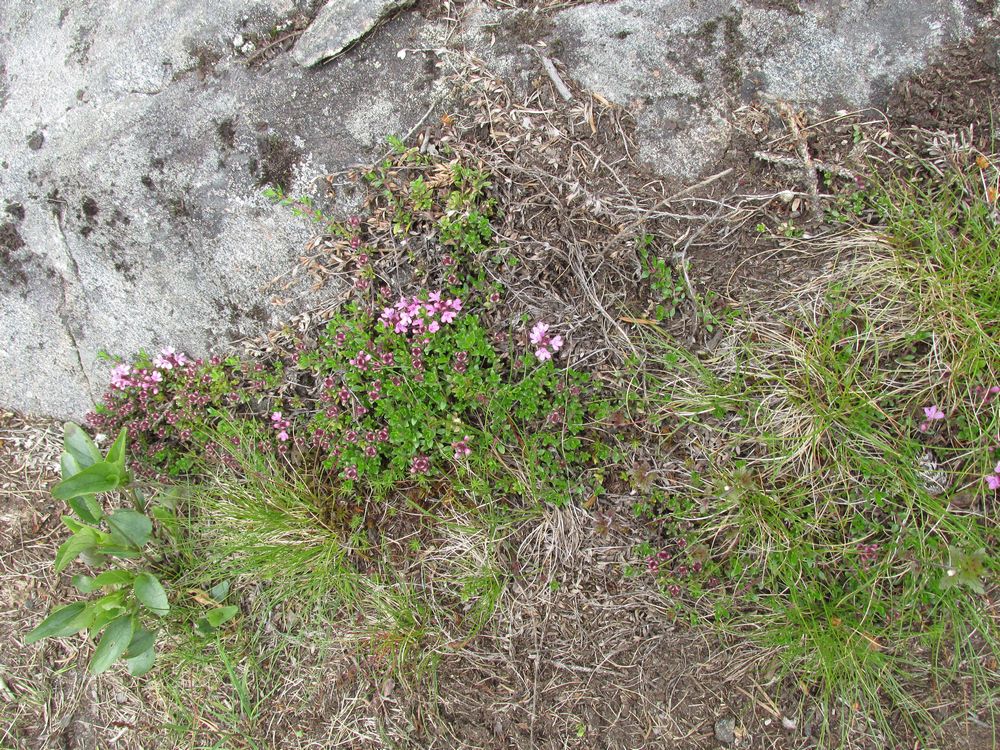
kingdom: Plantae
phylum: Tracheophyta
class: Magnoliopsida
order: Lamiales
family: Lamiaceae
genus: Thymus
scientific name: Thymus serpyllum
